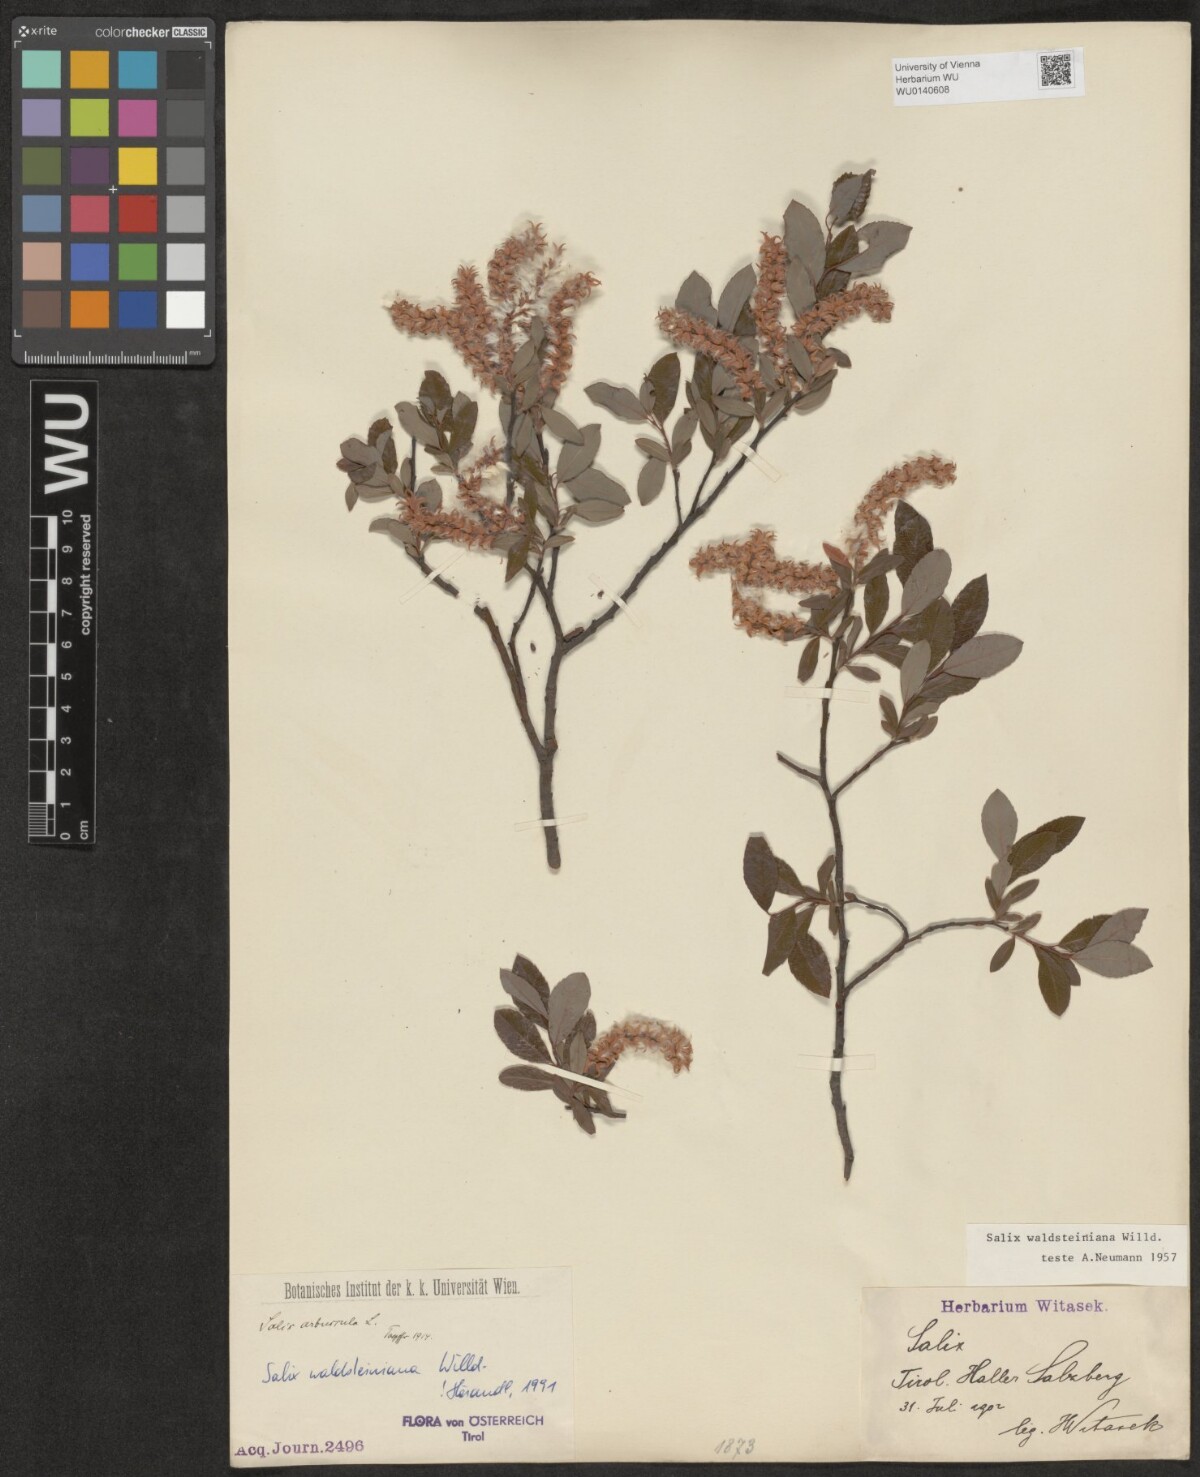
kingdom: Plantae
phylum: Tracheophyta
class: Magnoliopsida
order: Malpighiales
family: Salicaceae
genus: Salix
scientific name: Salix waldsteiniana
